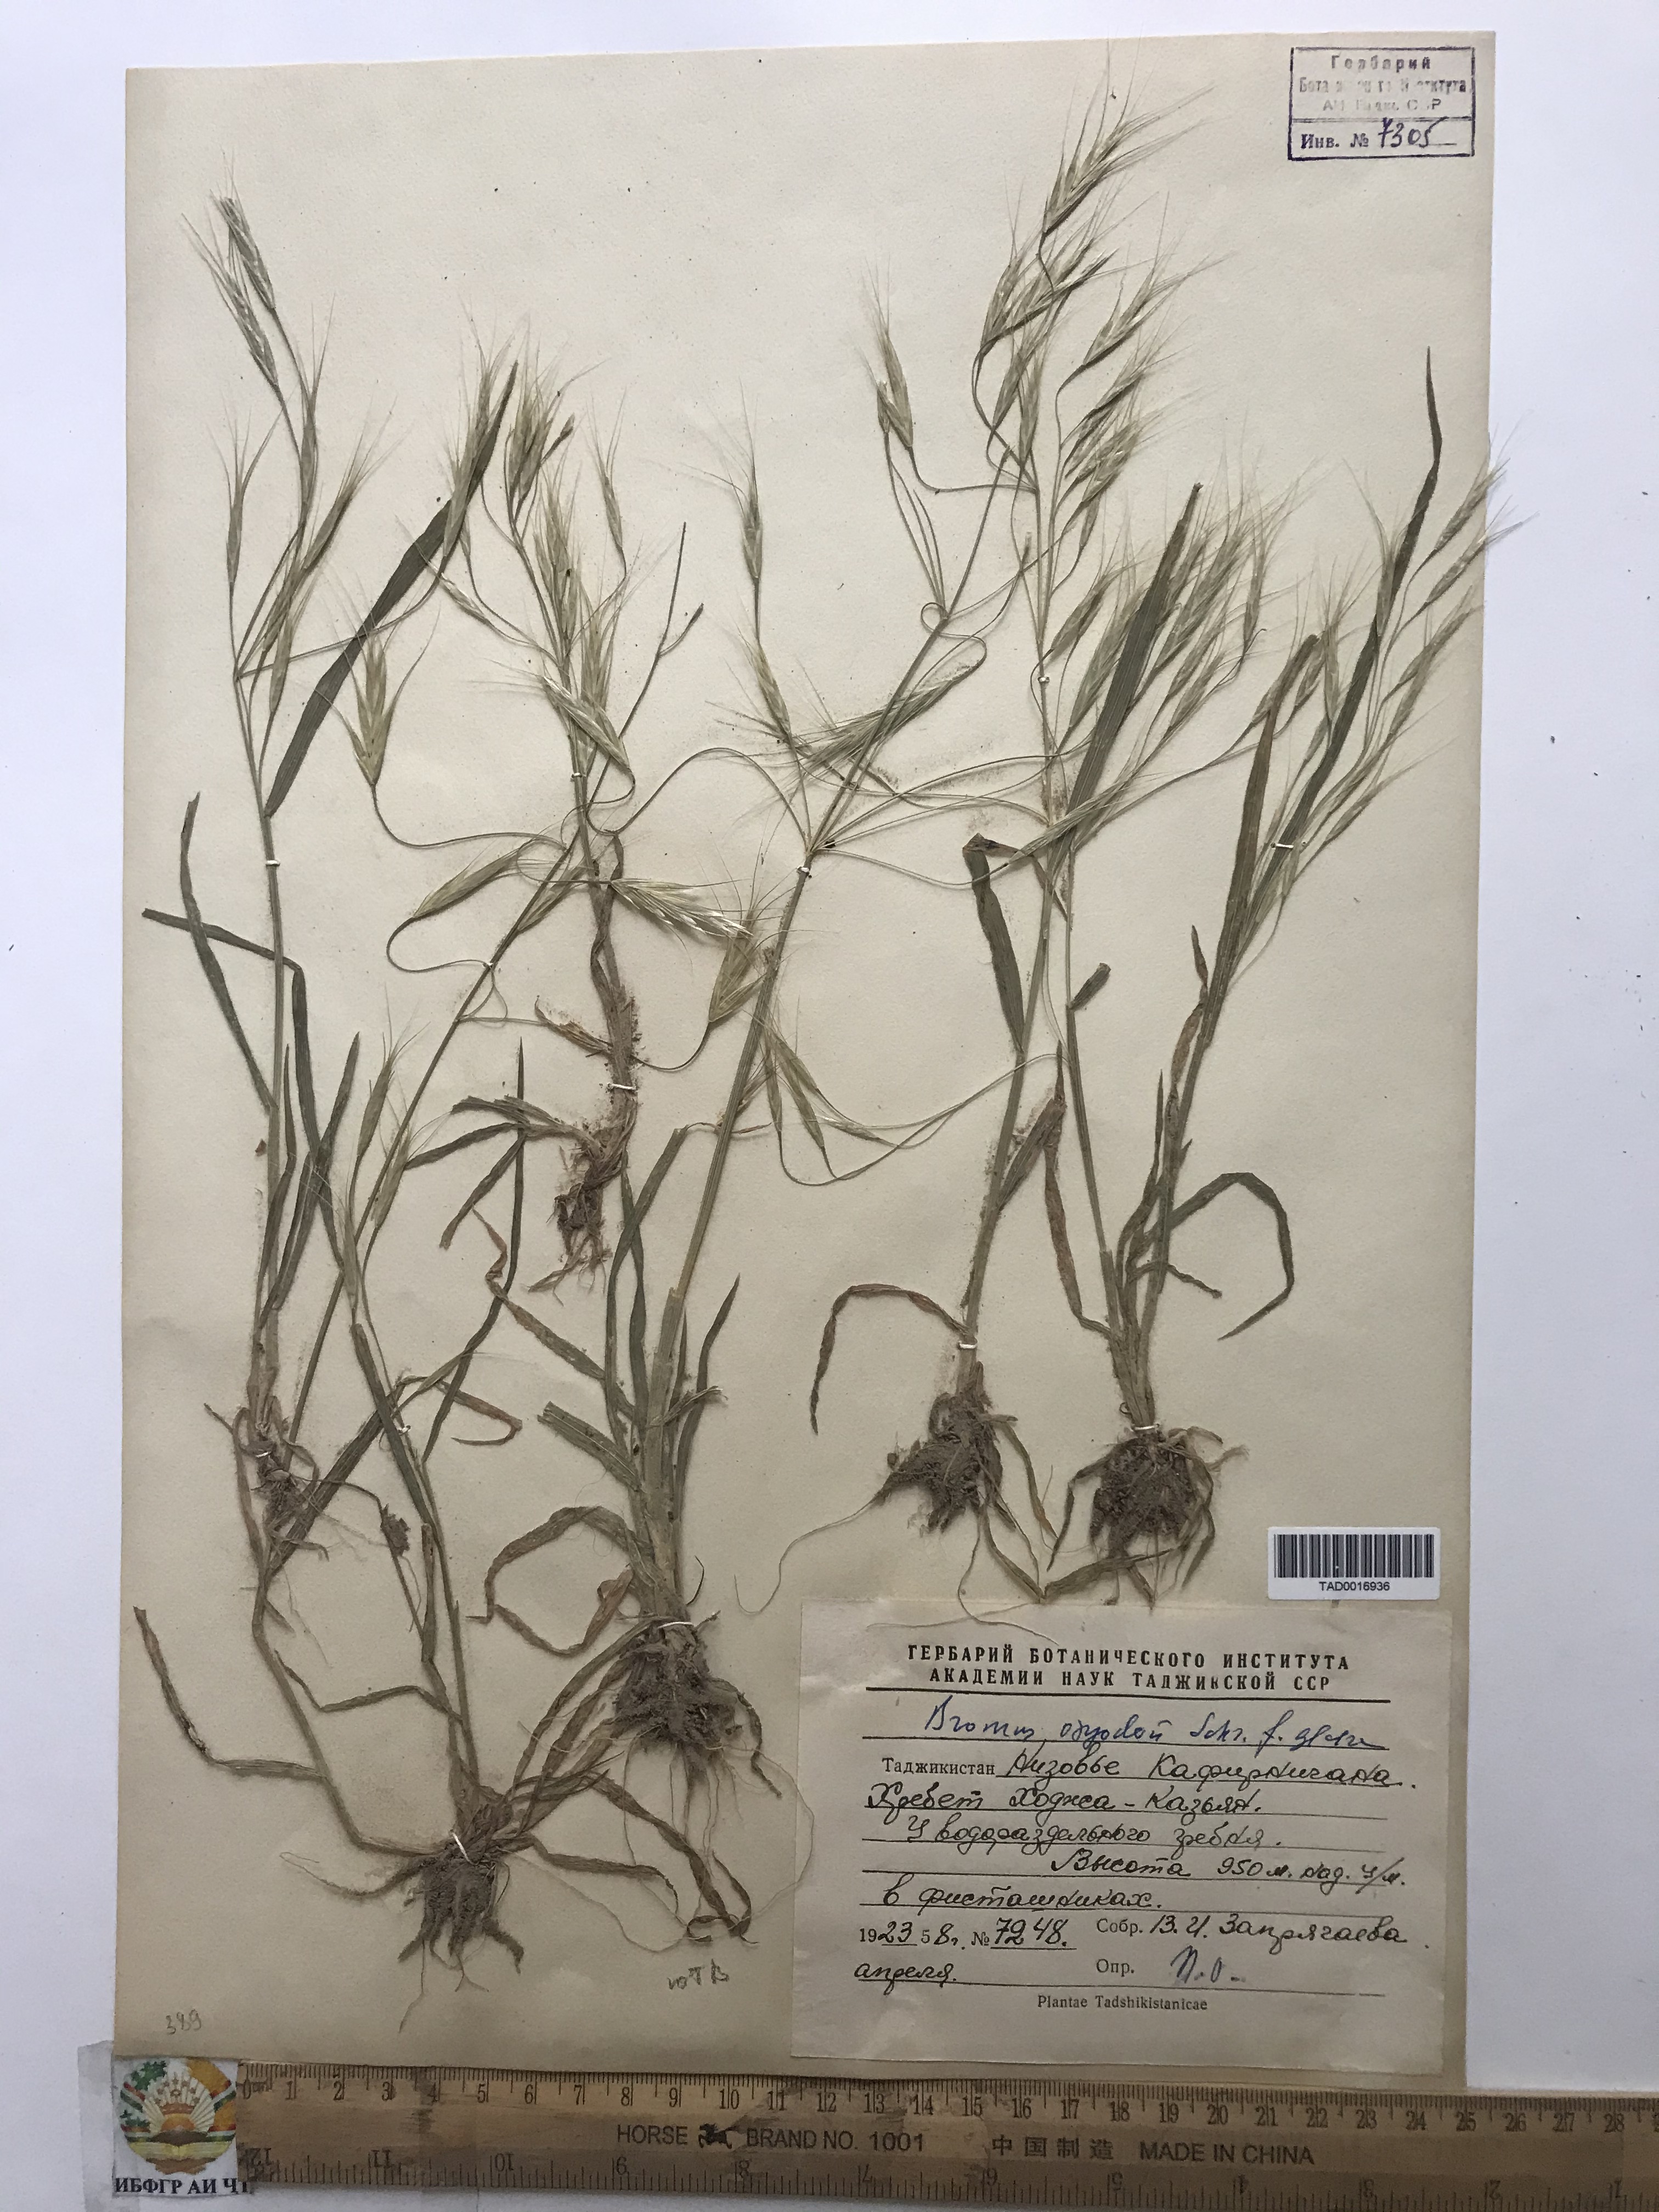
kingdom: Plantae
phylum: Tracheophyta
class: Liliopsida
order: Poales
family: Poaceae
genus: Bromus
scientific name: Bromus oxyodon
